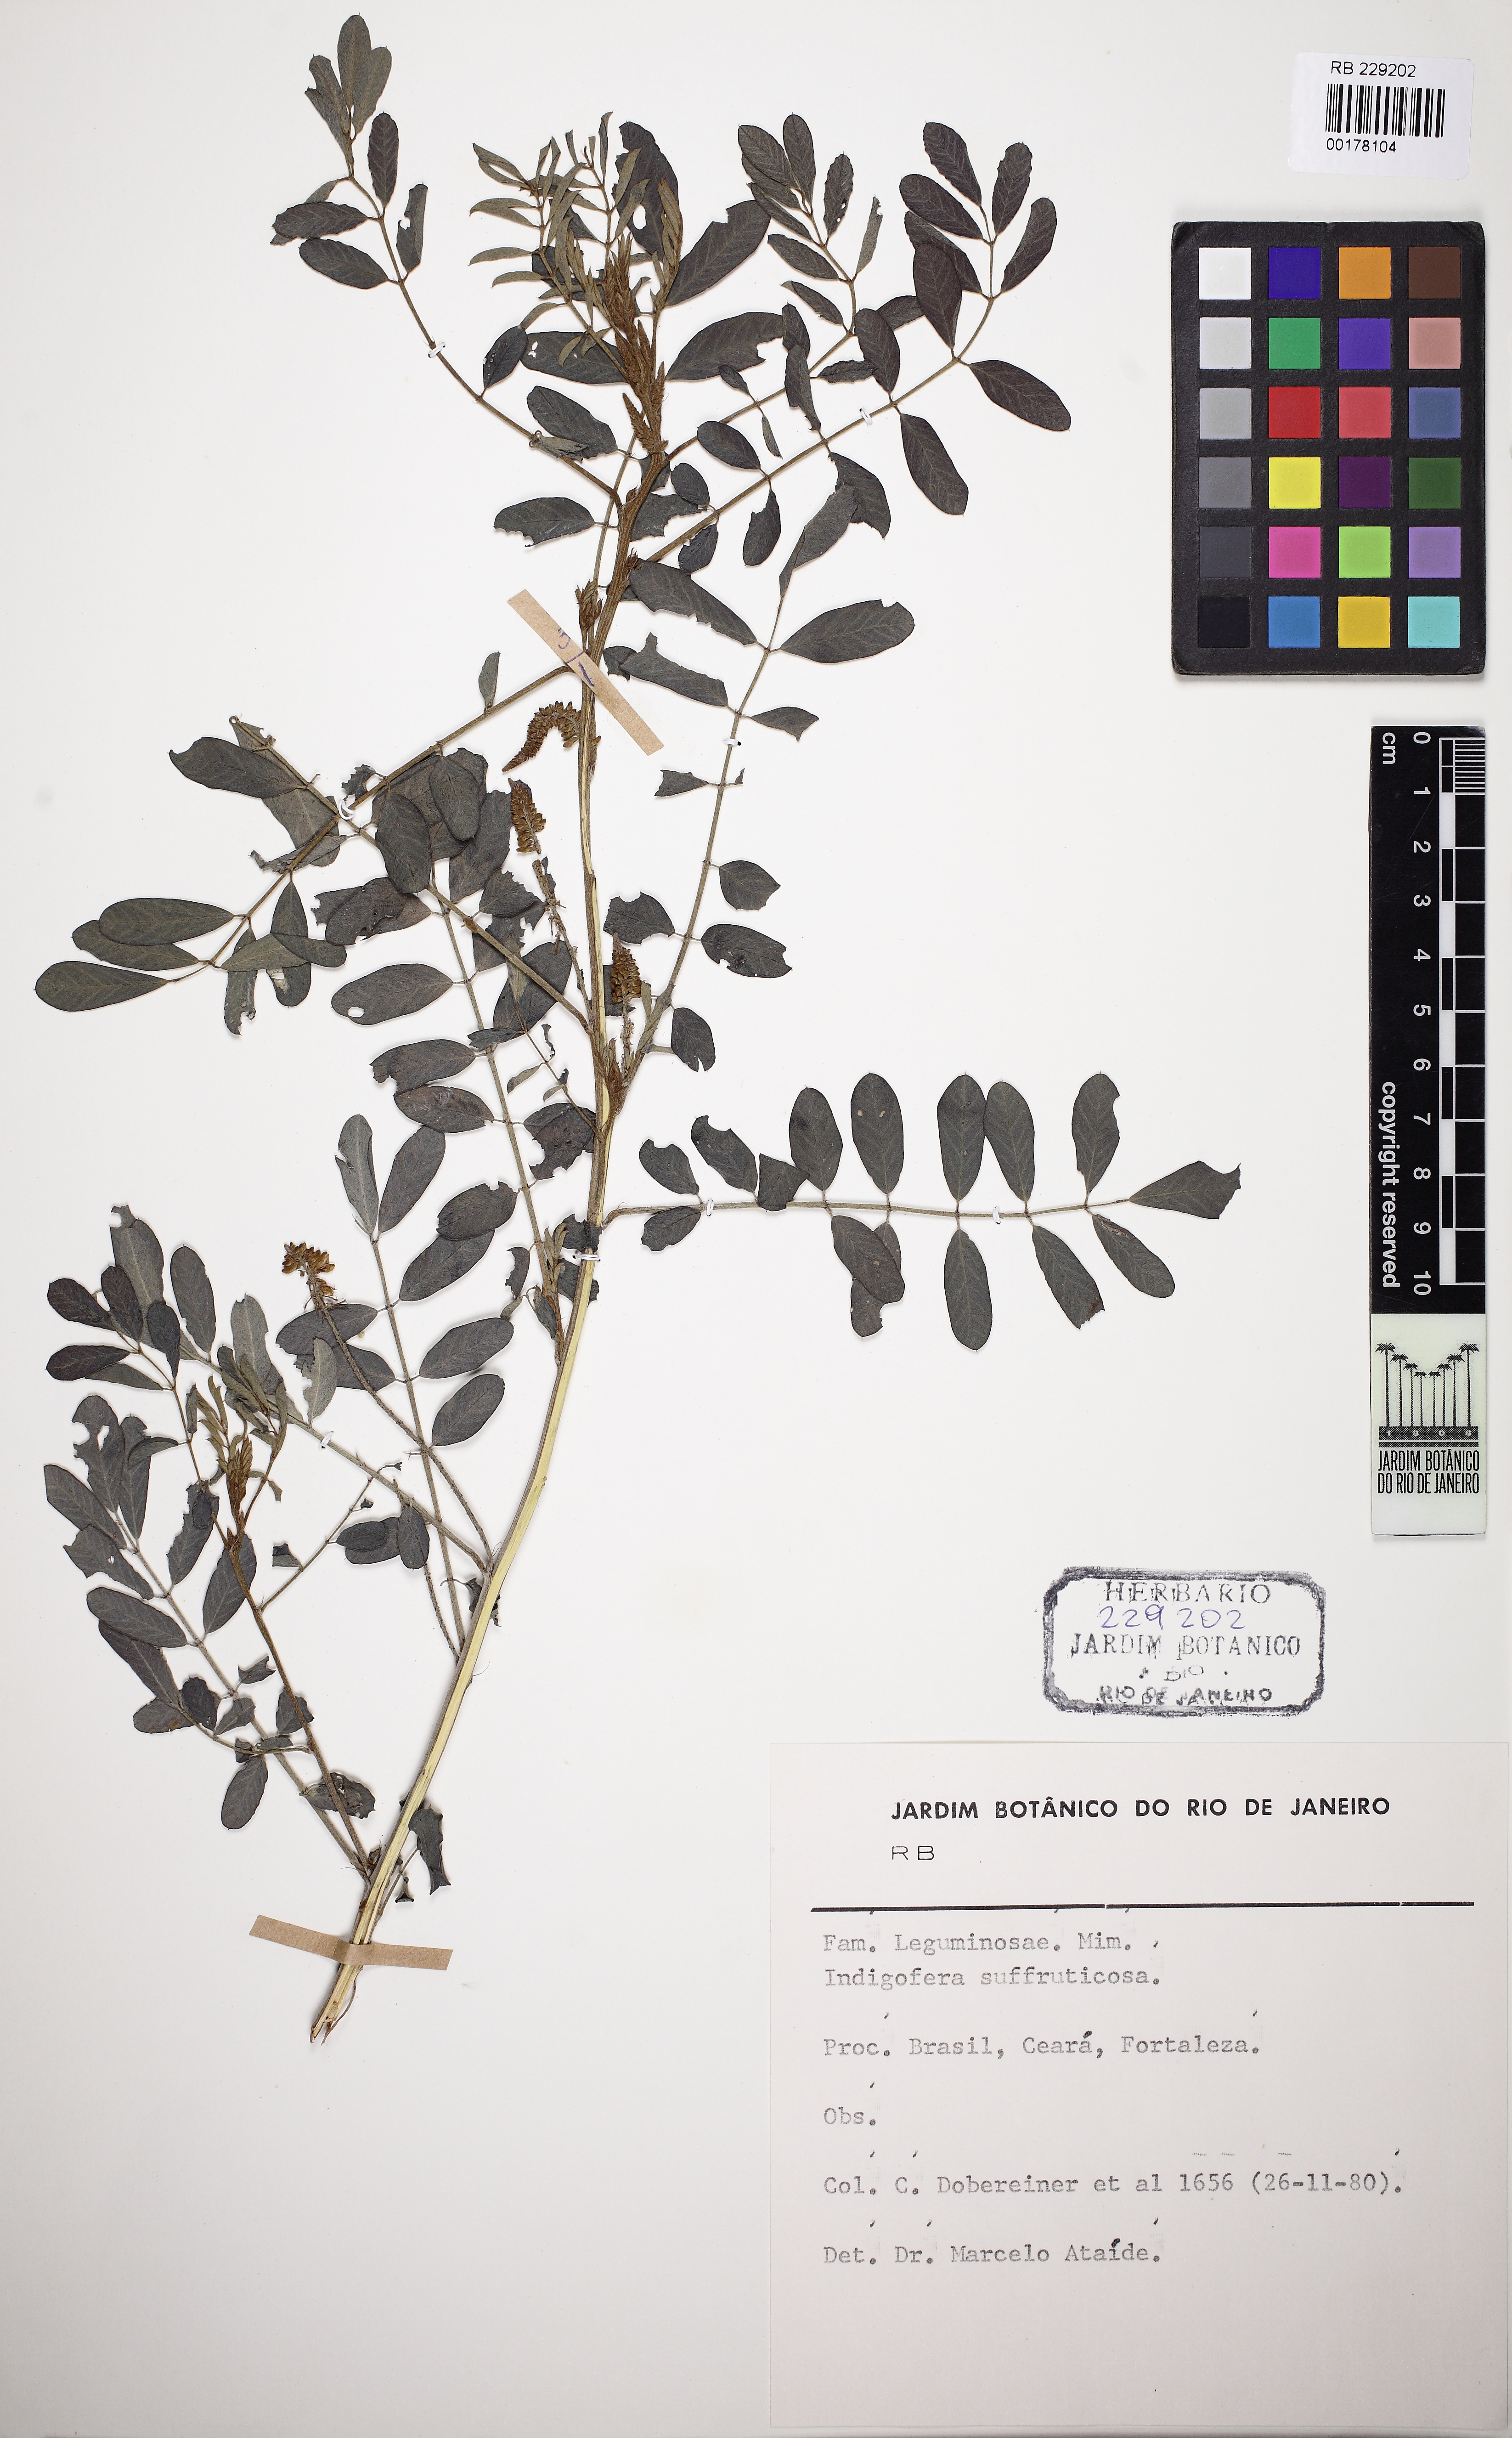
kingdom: Plantae
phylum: Tracheophyta
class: Magnoliopsida
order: Fabales
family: Fabaceae
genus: Indigofera
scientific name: Indigofera suffruticosa
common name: Anil de pasto
